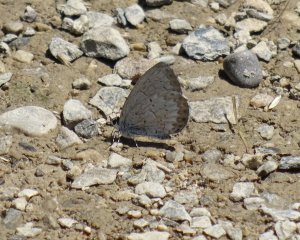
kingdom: Animalia
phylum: Arthropoda
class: Insecta
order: Lepidoptera
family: Lycaenidae
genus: Cyaniris
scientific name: Cyaniris neglecta
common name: Summer Azure
